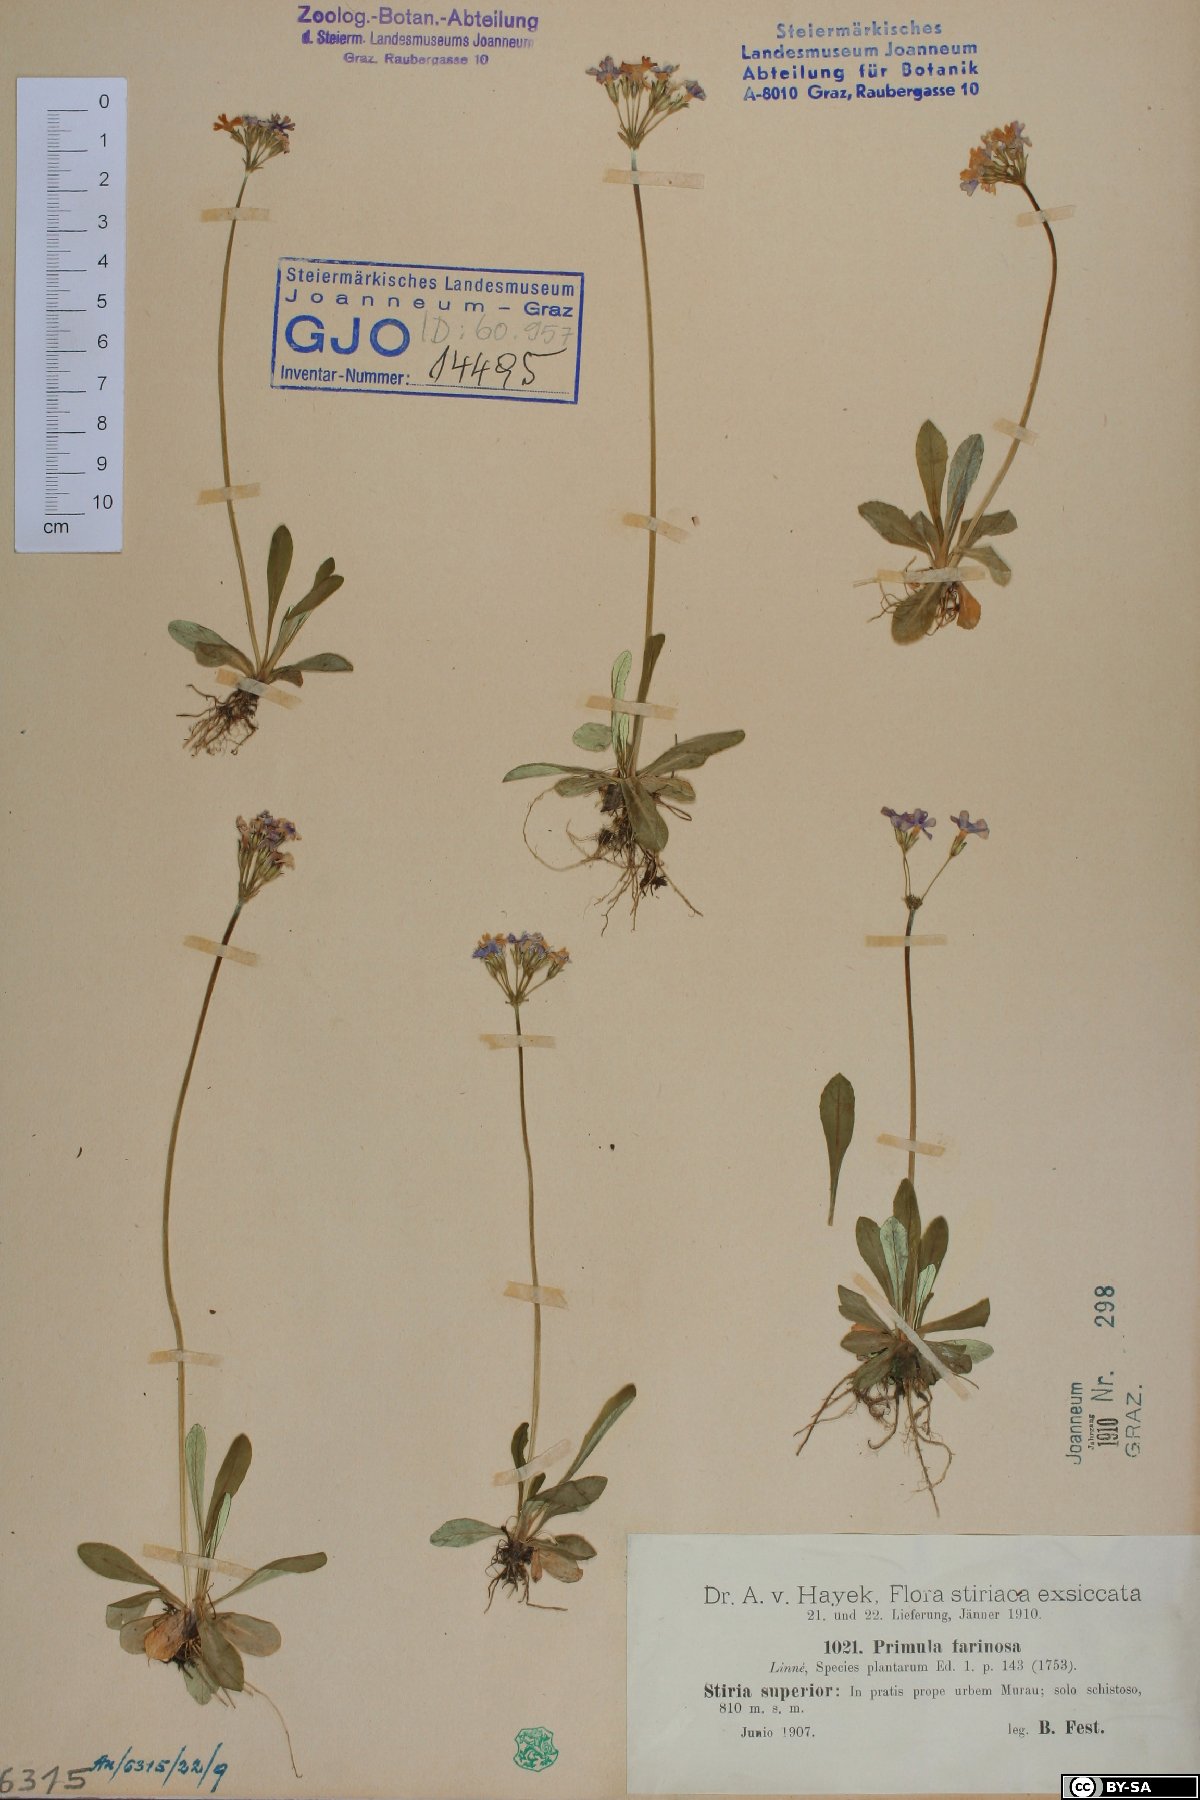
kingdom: Plantae
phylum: Tracheophyta
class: Magnoliopsida
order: Ericales
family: Primulaceae
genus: Primula
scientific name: Primula farinosa
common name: Bird's-eye primrose
